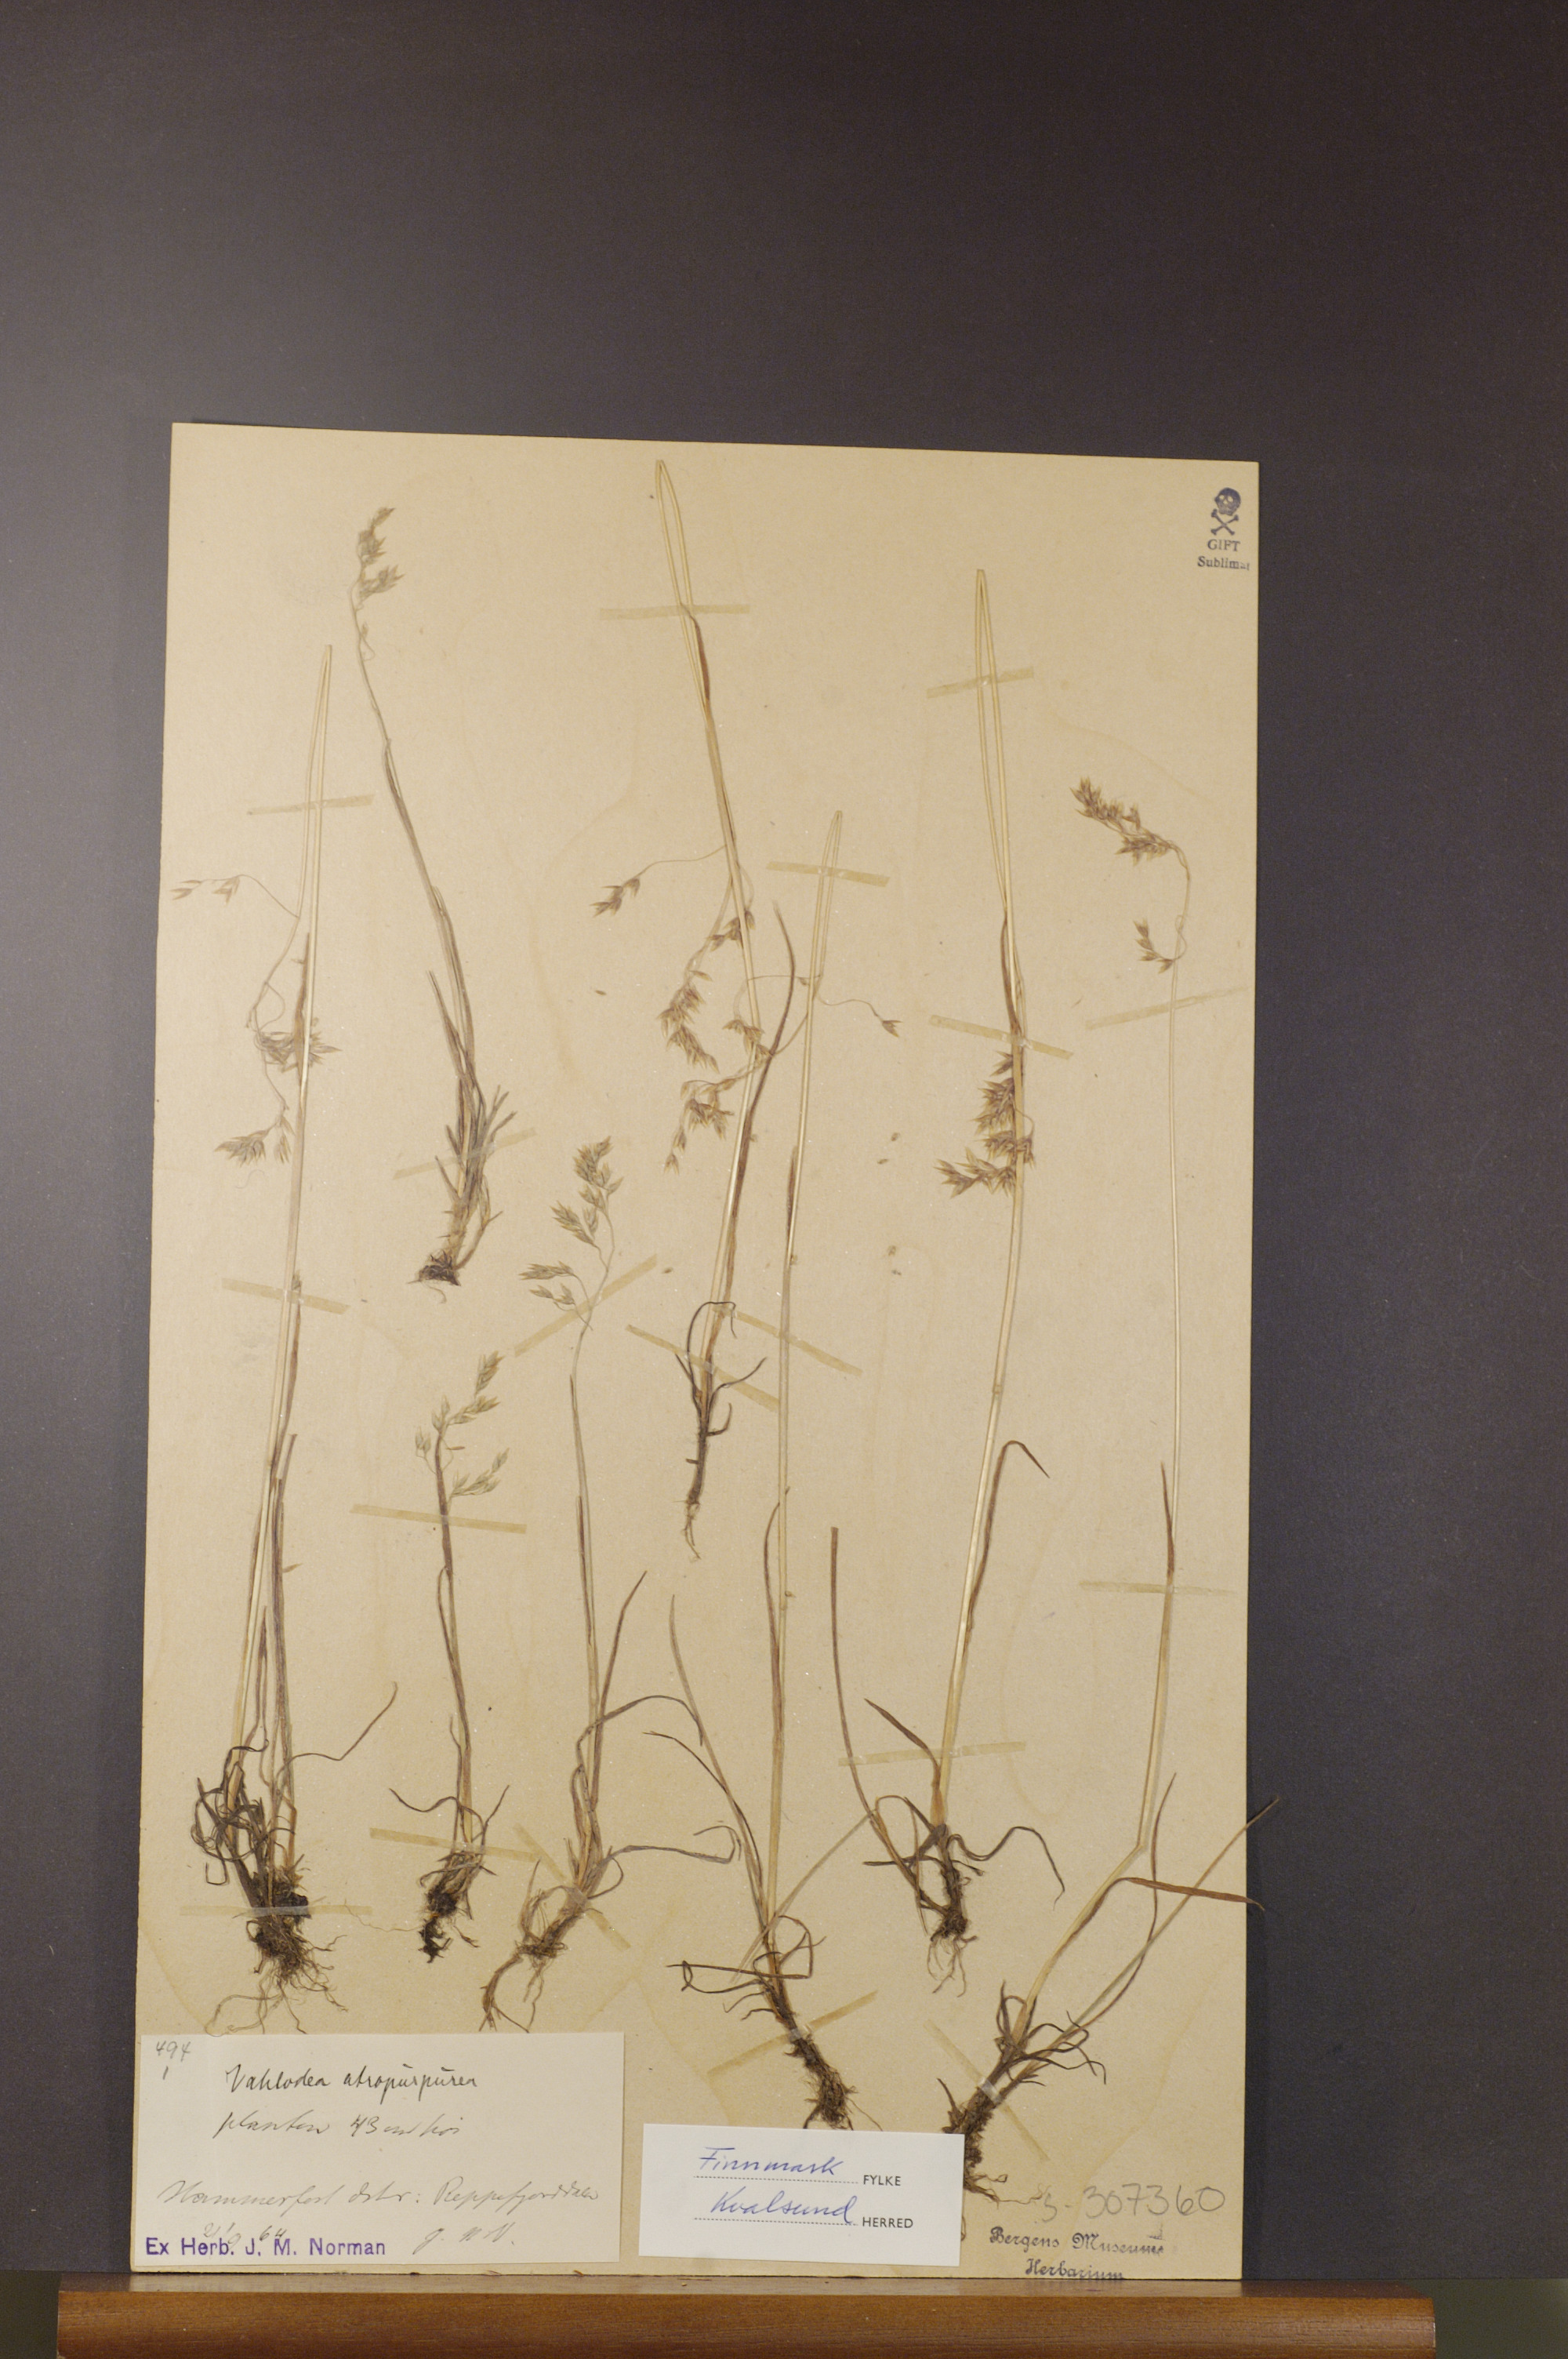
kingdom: Plantae
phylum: Tracheophyta
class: Liliopsida
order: Poales
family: Poaceae
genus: Vahlodea
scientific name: Vahlodea atropurpurea
